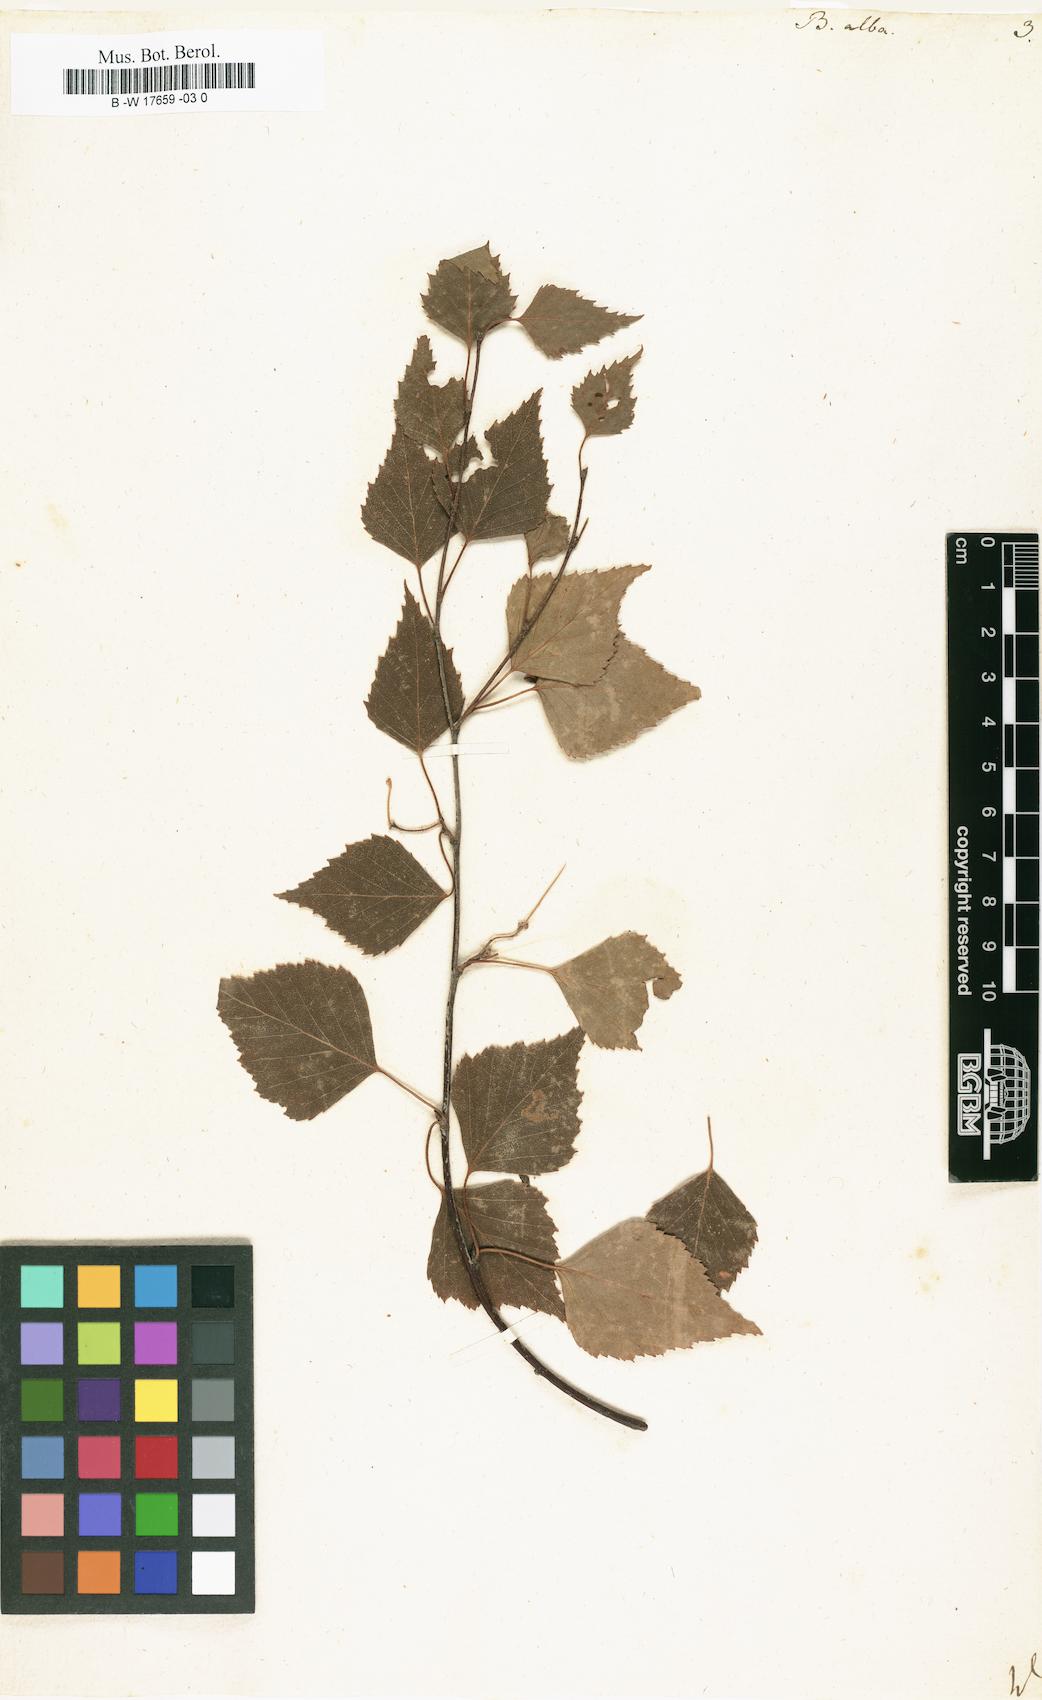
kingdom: Plantae
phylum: Tracheophyta
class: Magnoliopsida
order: Fagales
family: Betulaceae
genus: Betula
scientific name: Betula pubescens
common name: Downy birch
